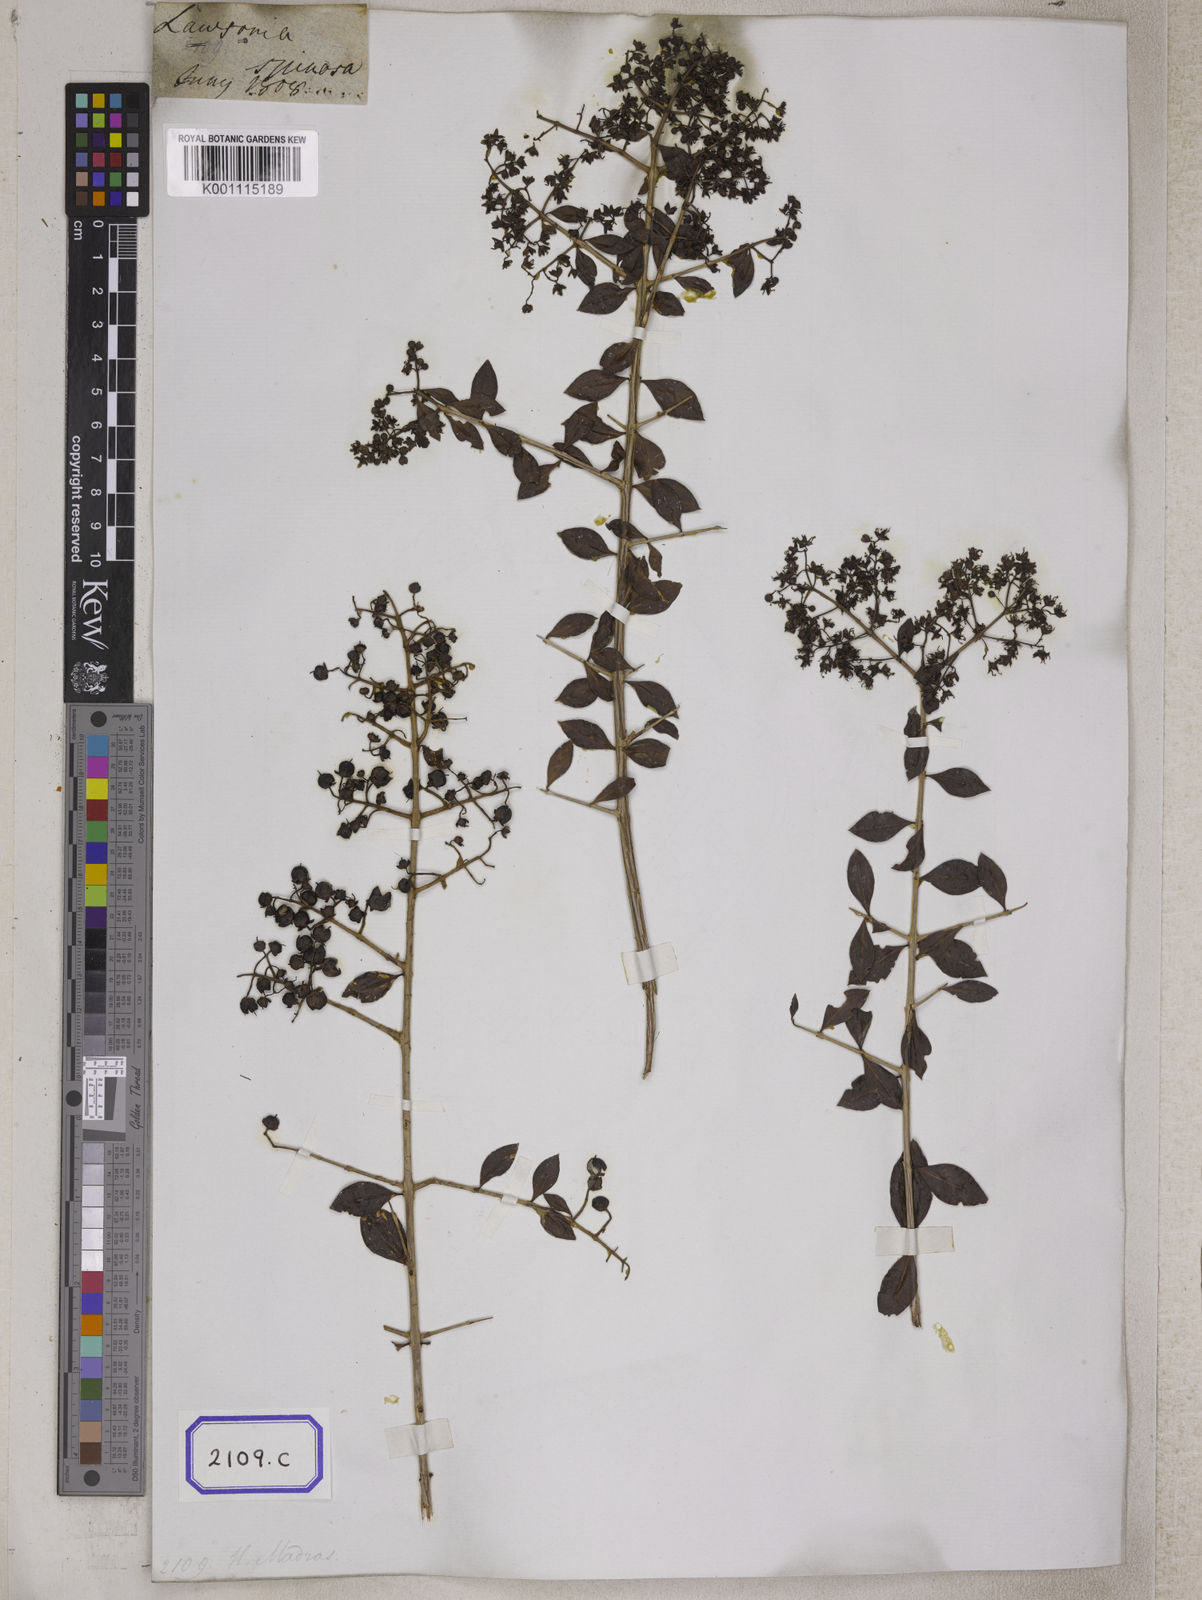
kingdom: Plantae
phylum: Tracheophyta
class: Magnoliopsida
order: Myrtales
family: Lythraceae
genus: Lawsonia
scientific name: Lawsonia inermis
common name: Henna
